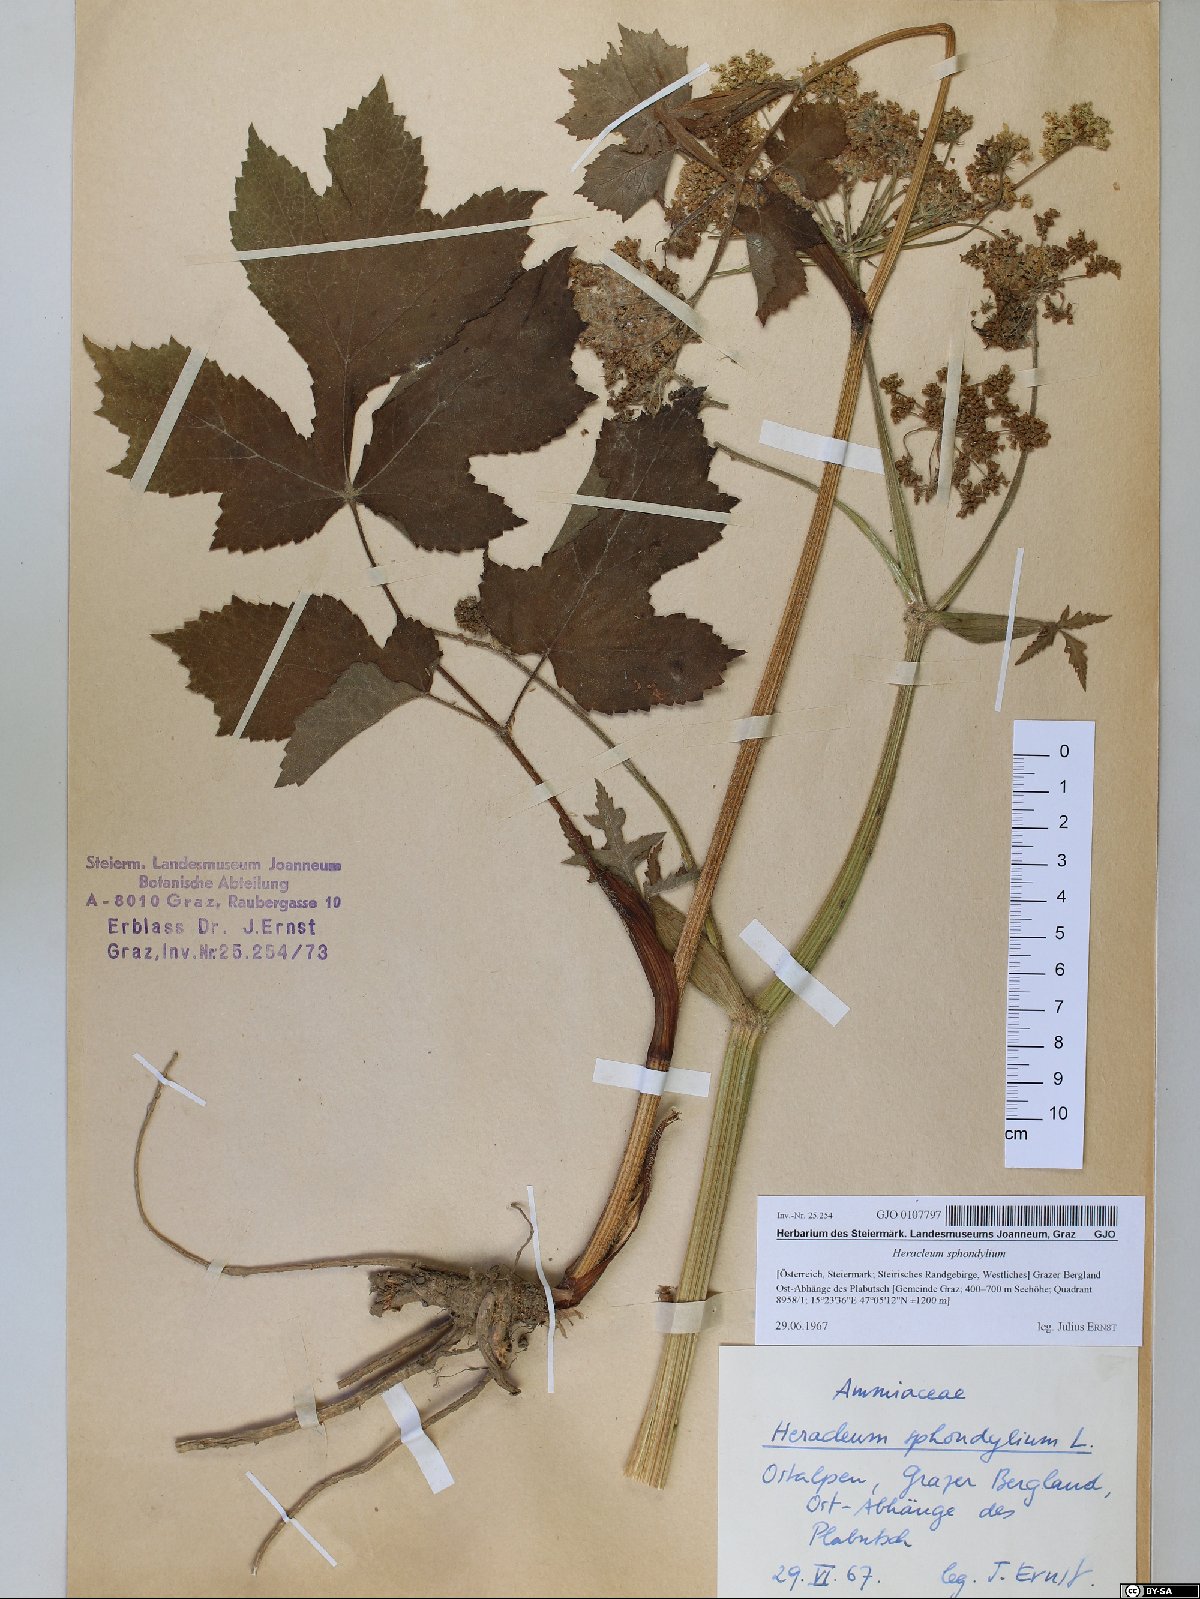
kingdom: Plantae
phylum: Tracheophyta
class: Magnoliopsida
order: Apiales
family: Apiaceae
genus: Heracleum
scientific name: Heracleum sphondylium
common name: Hogweed
